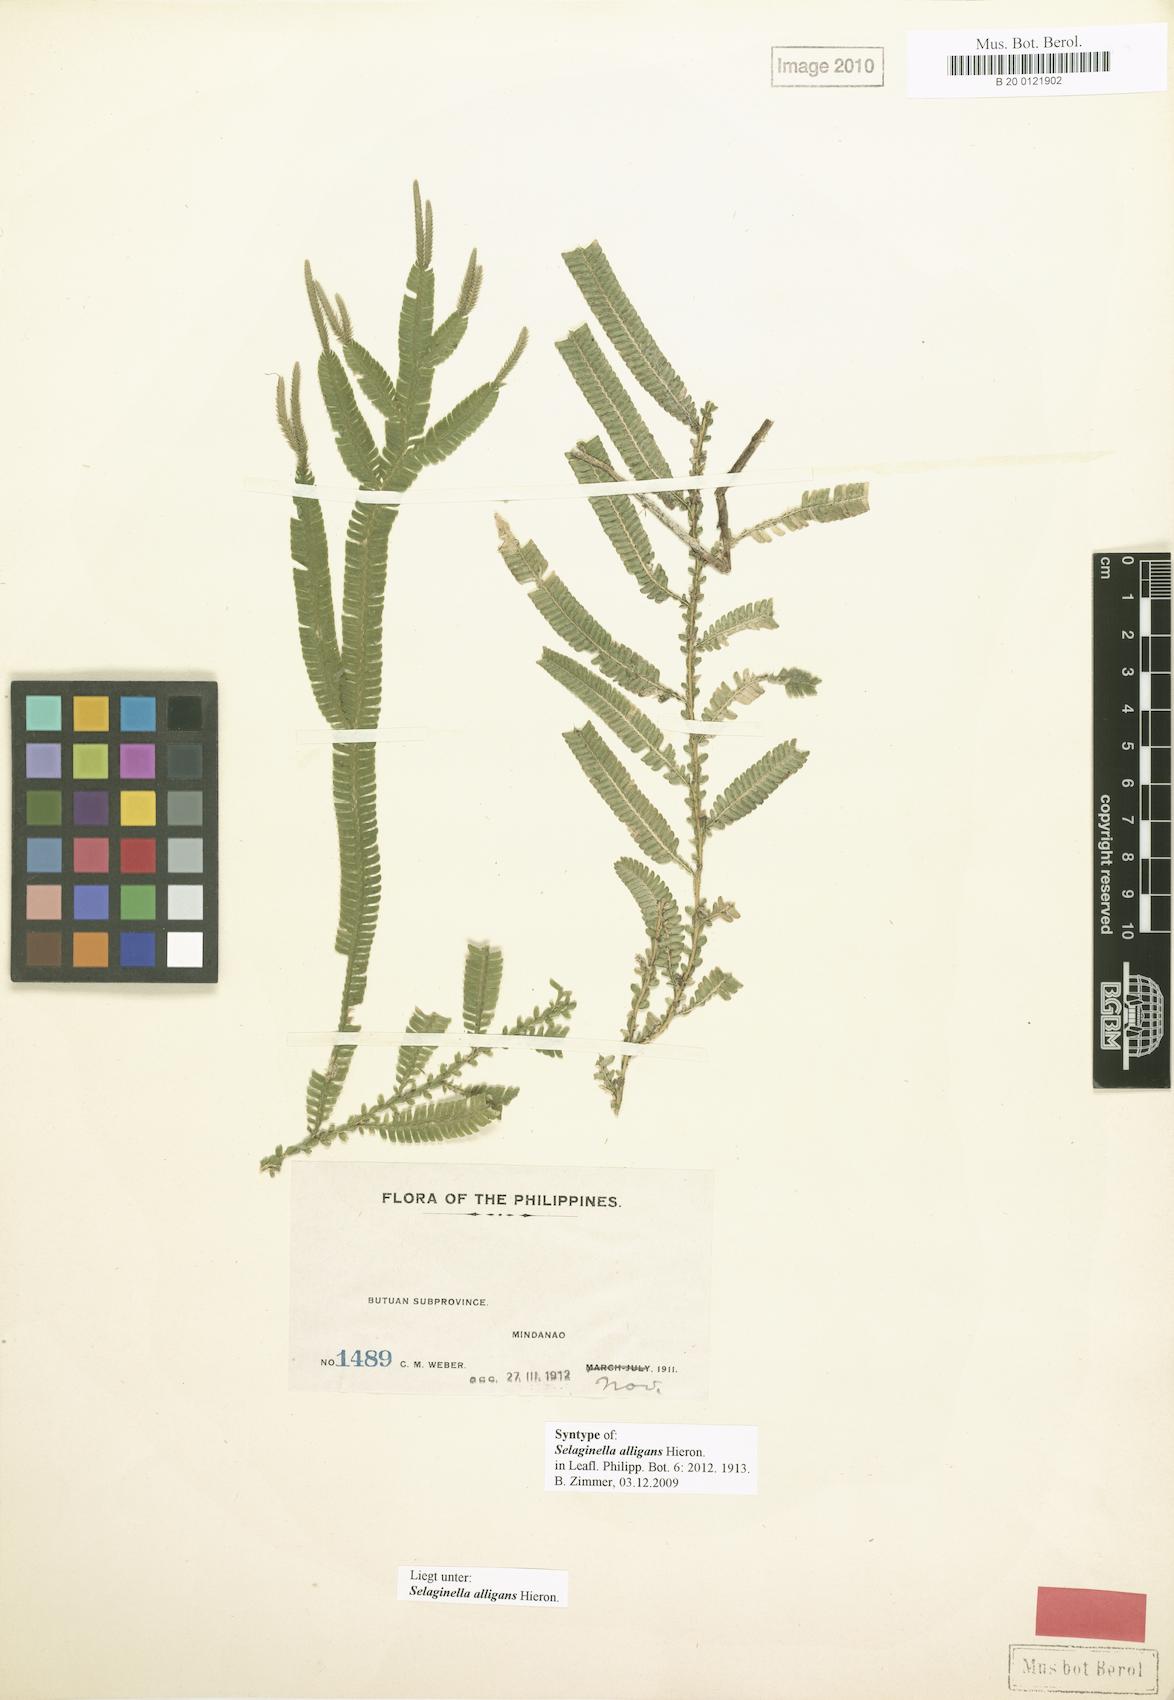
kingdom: Plantae
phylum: Tracheophyta
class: Lycopodiopsida
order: Selaginellales
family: Selaginellaceae
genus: Selaginella
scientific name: Selaginella alligans
